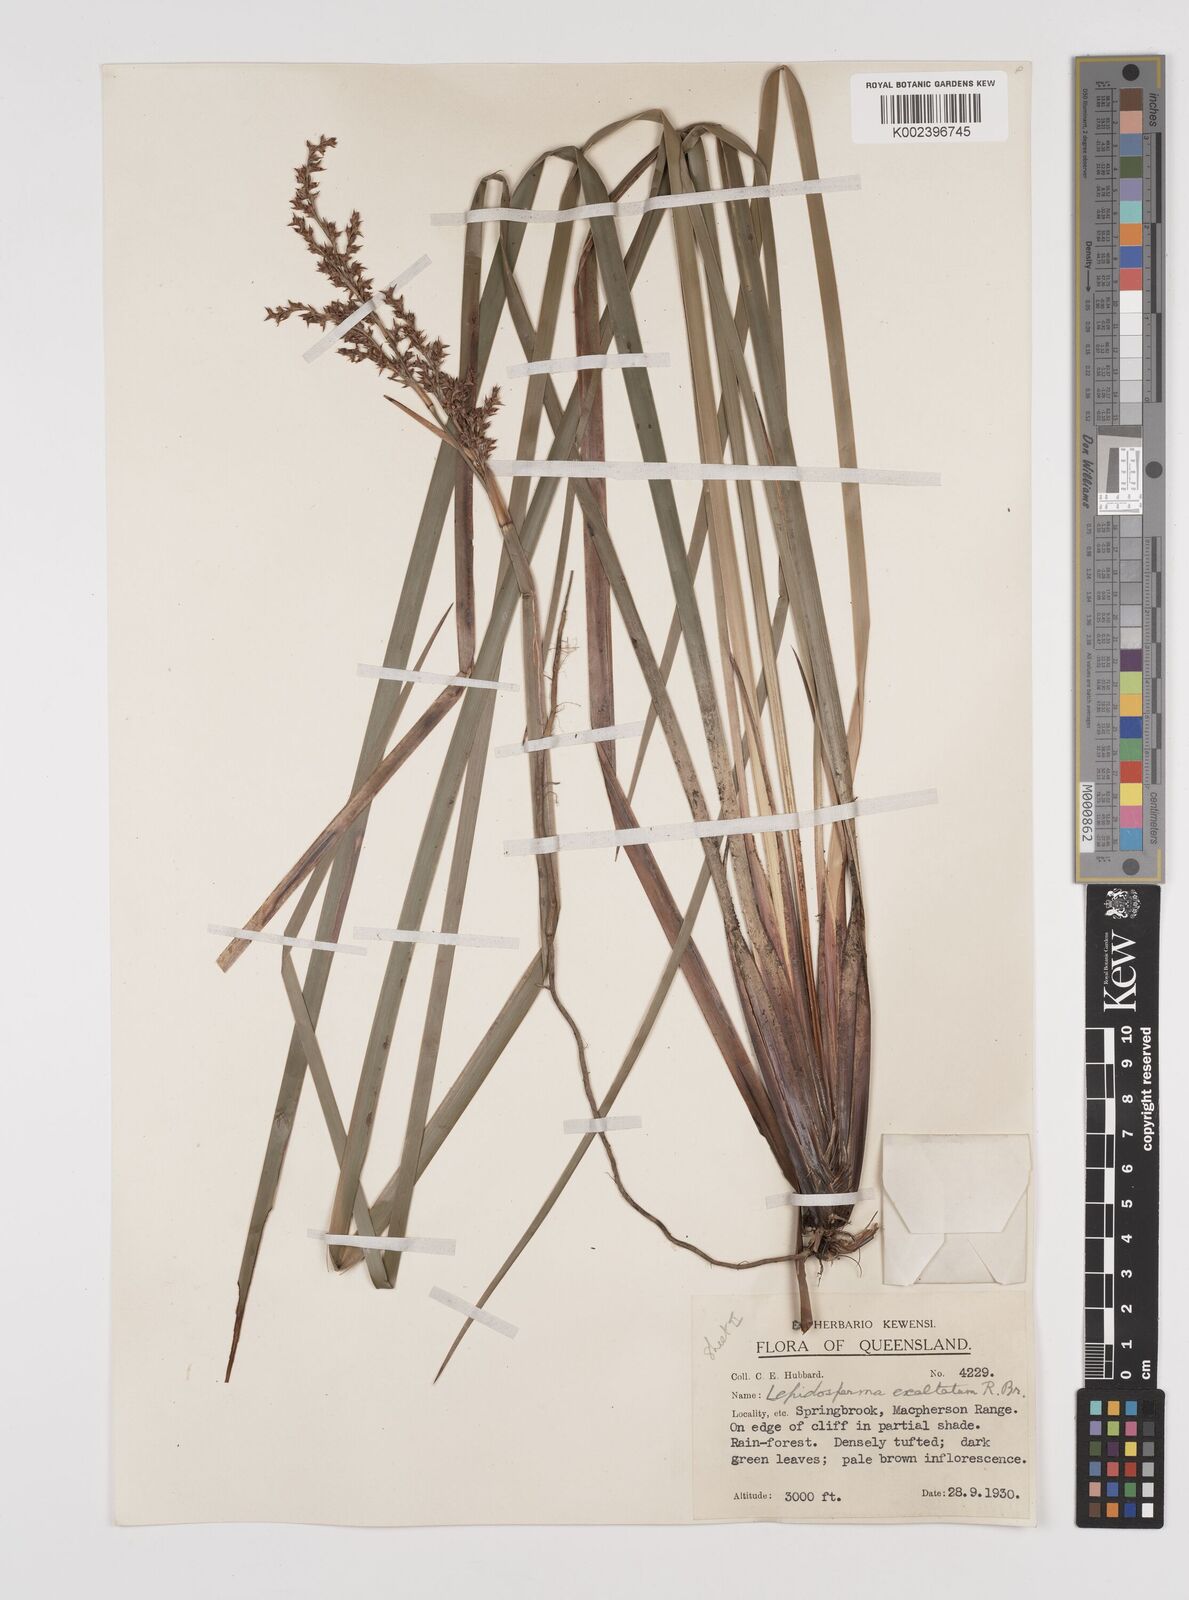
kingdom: Plantae
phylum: Tracheophyta
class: Liliopsida
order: Poales
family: Cyperaceae
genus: Lepidosperma
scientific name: Lepidosperma laterale
